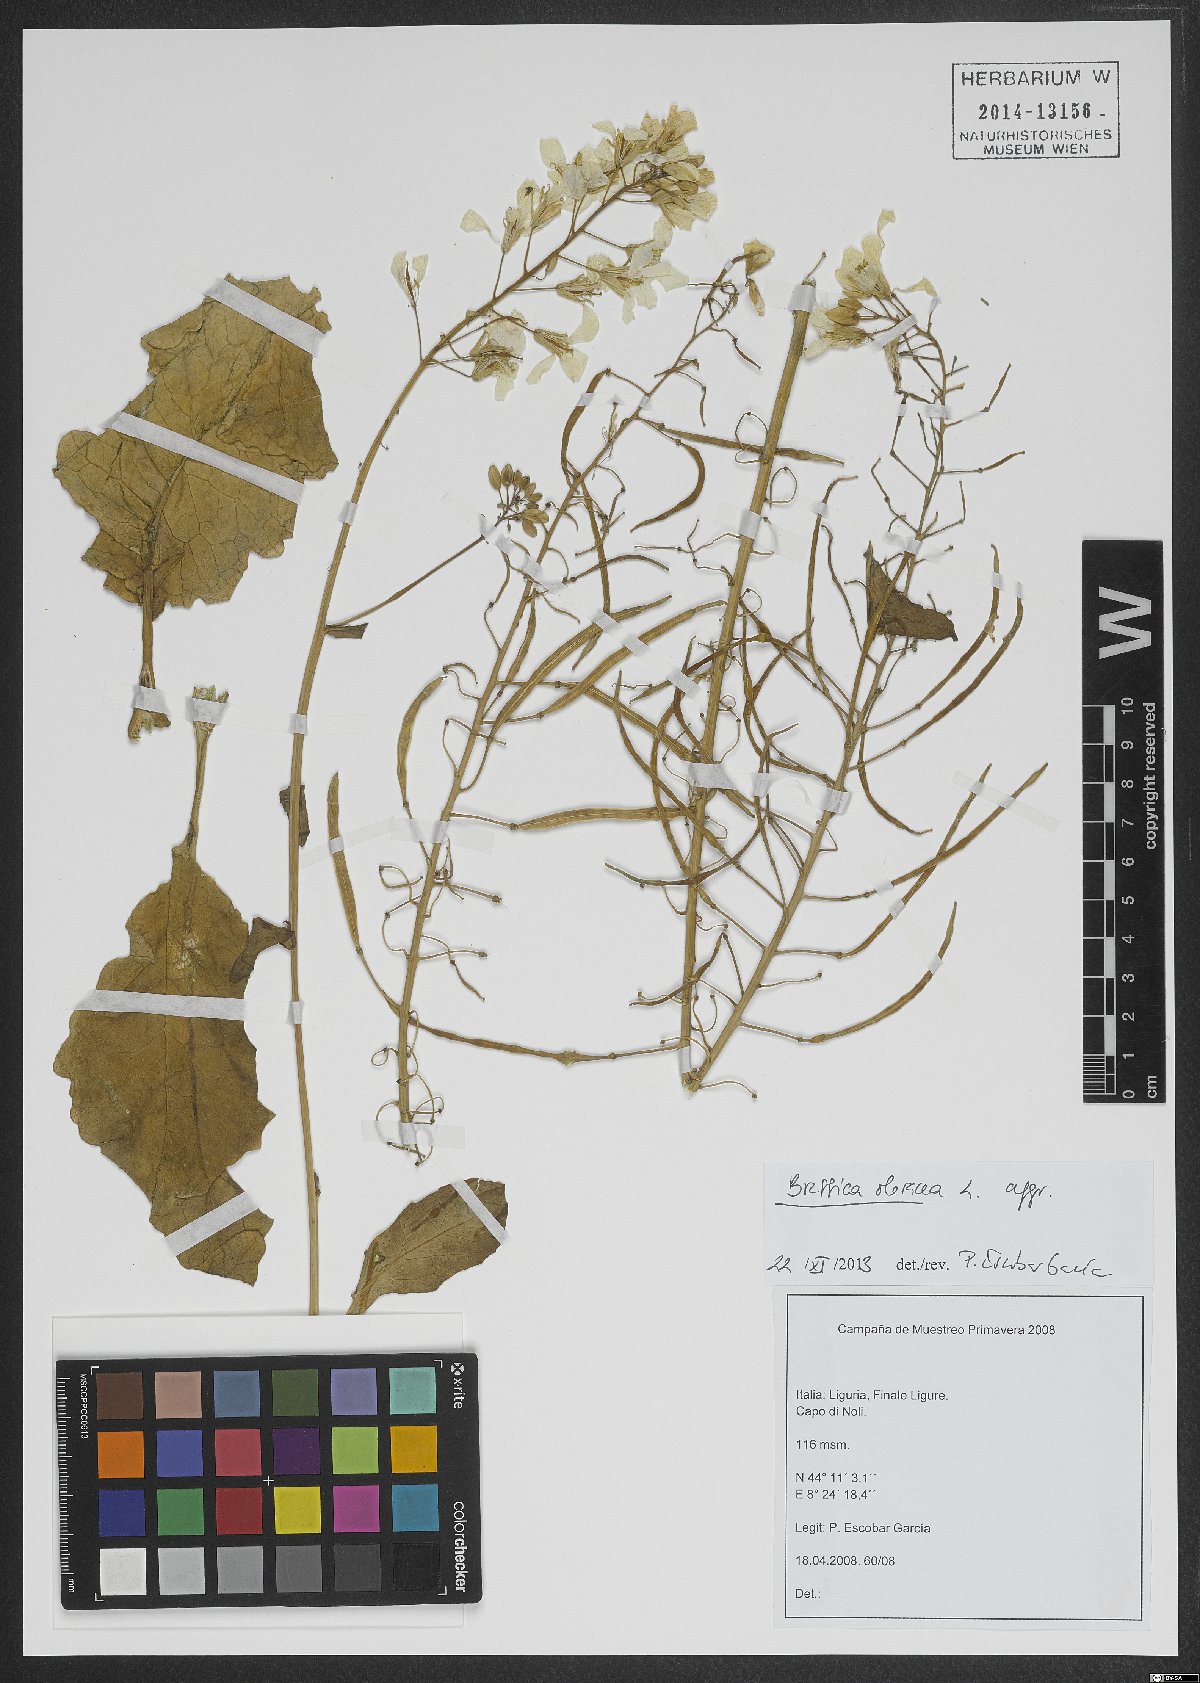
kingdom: Plantae
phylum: Tracheophyta
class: Magnoliopsida
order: Brassicales
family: Brassicaceae
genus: Brassica
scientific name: Brassica oleracea
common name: Cabbage
